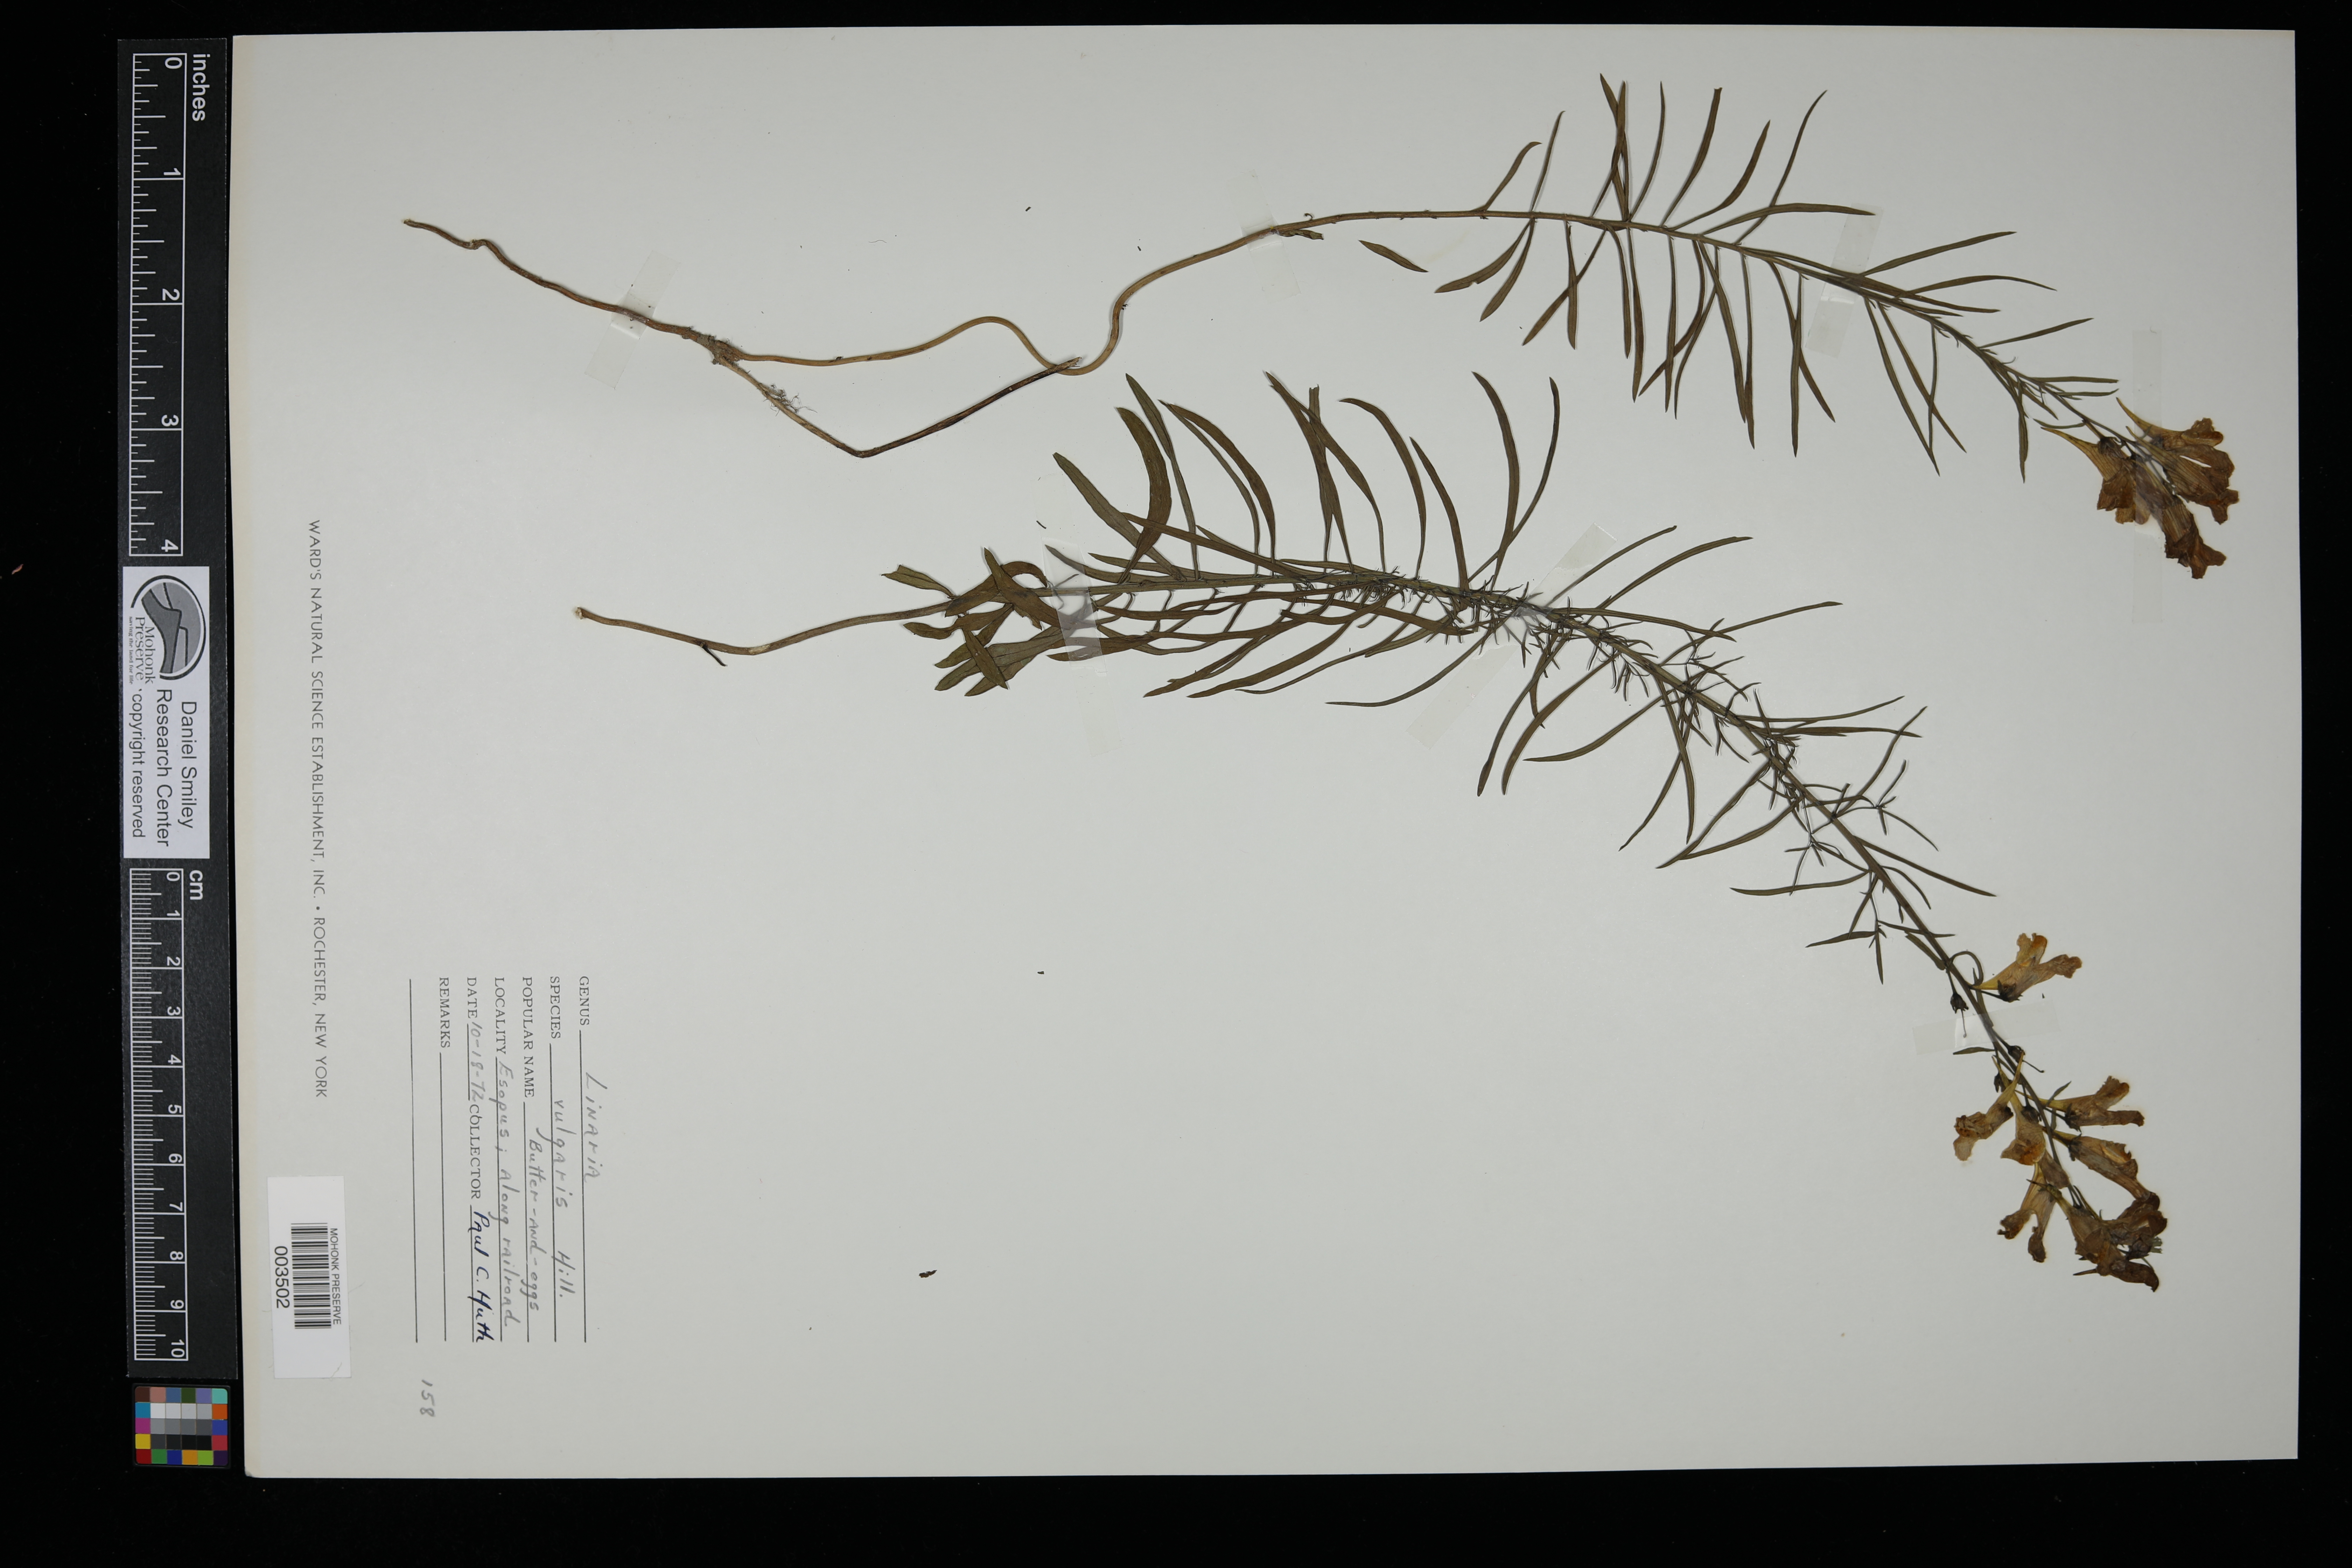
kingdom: Plantae
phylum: Tracheophyta
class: Magnoliopsida
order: Lamiales
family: Plantaginaceae
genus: Linaria
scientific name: Linaria vulgaris
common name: Butter and eggs
